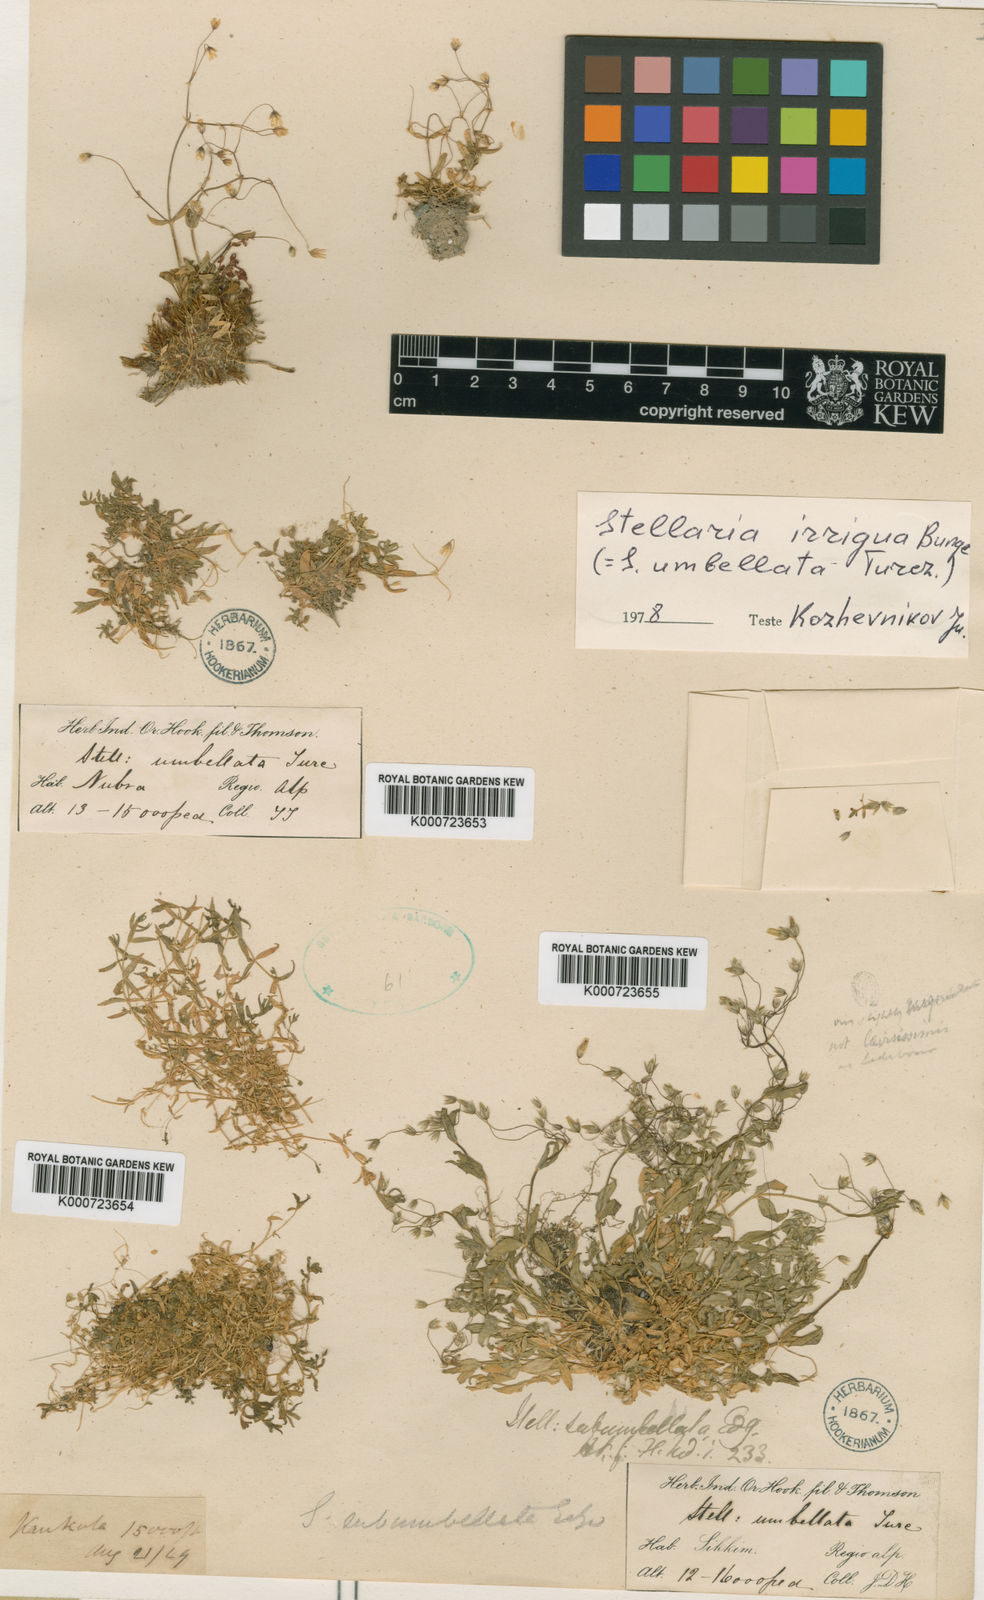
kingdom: Plantae
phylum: Tracheophyta
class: Magnoliopsida
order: Caryophyllales
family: Caryophyllaceae
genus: Stellaria
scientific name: Stellaria irrigua
